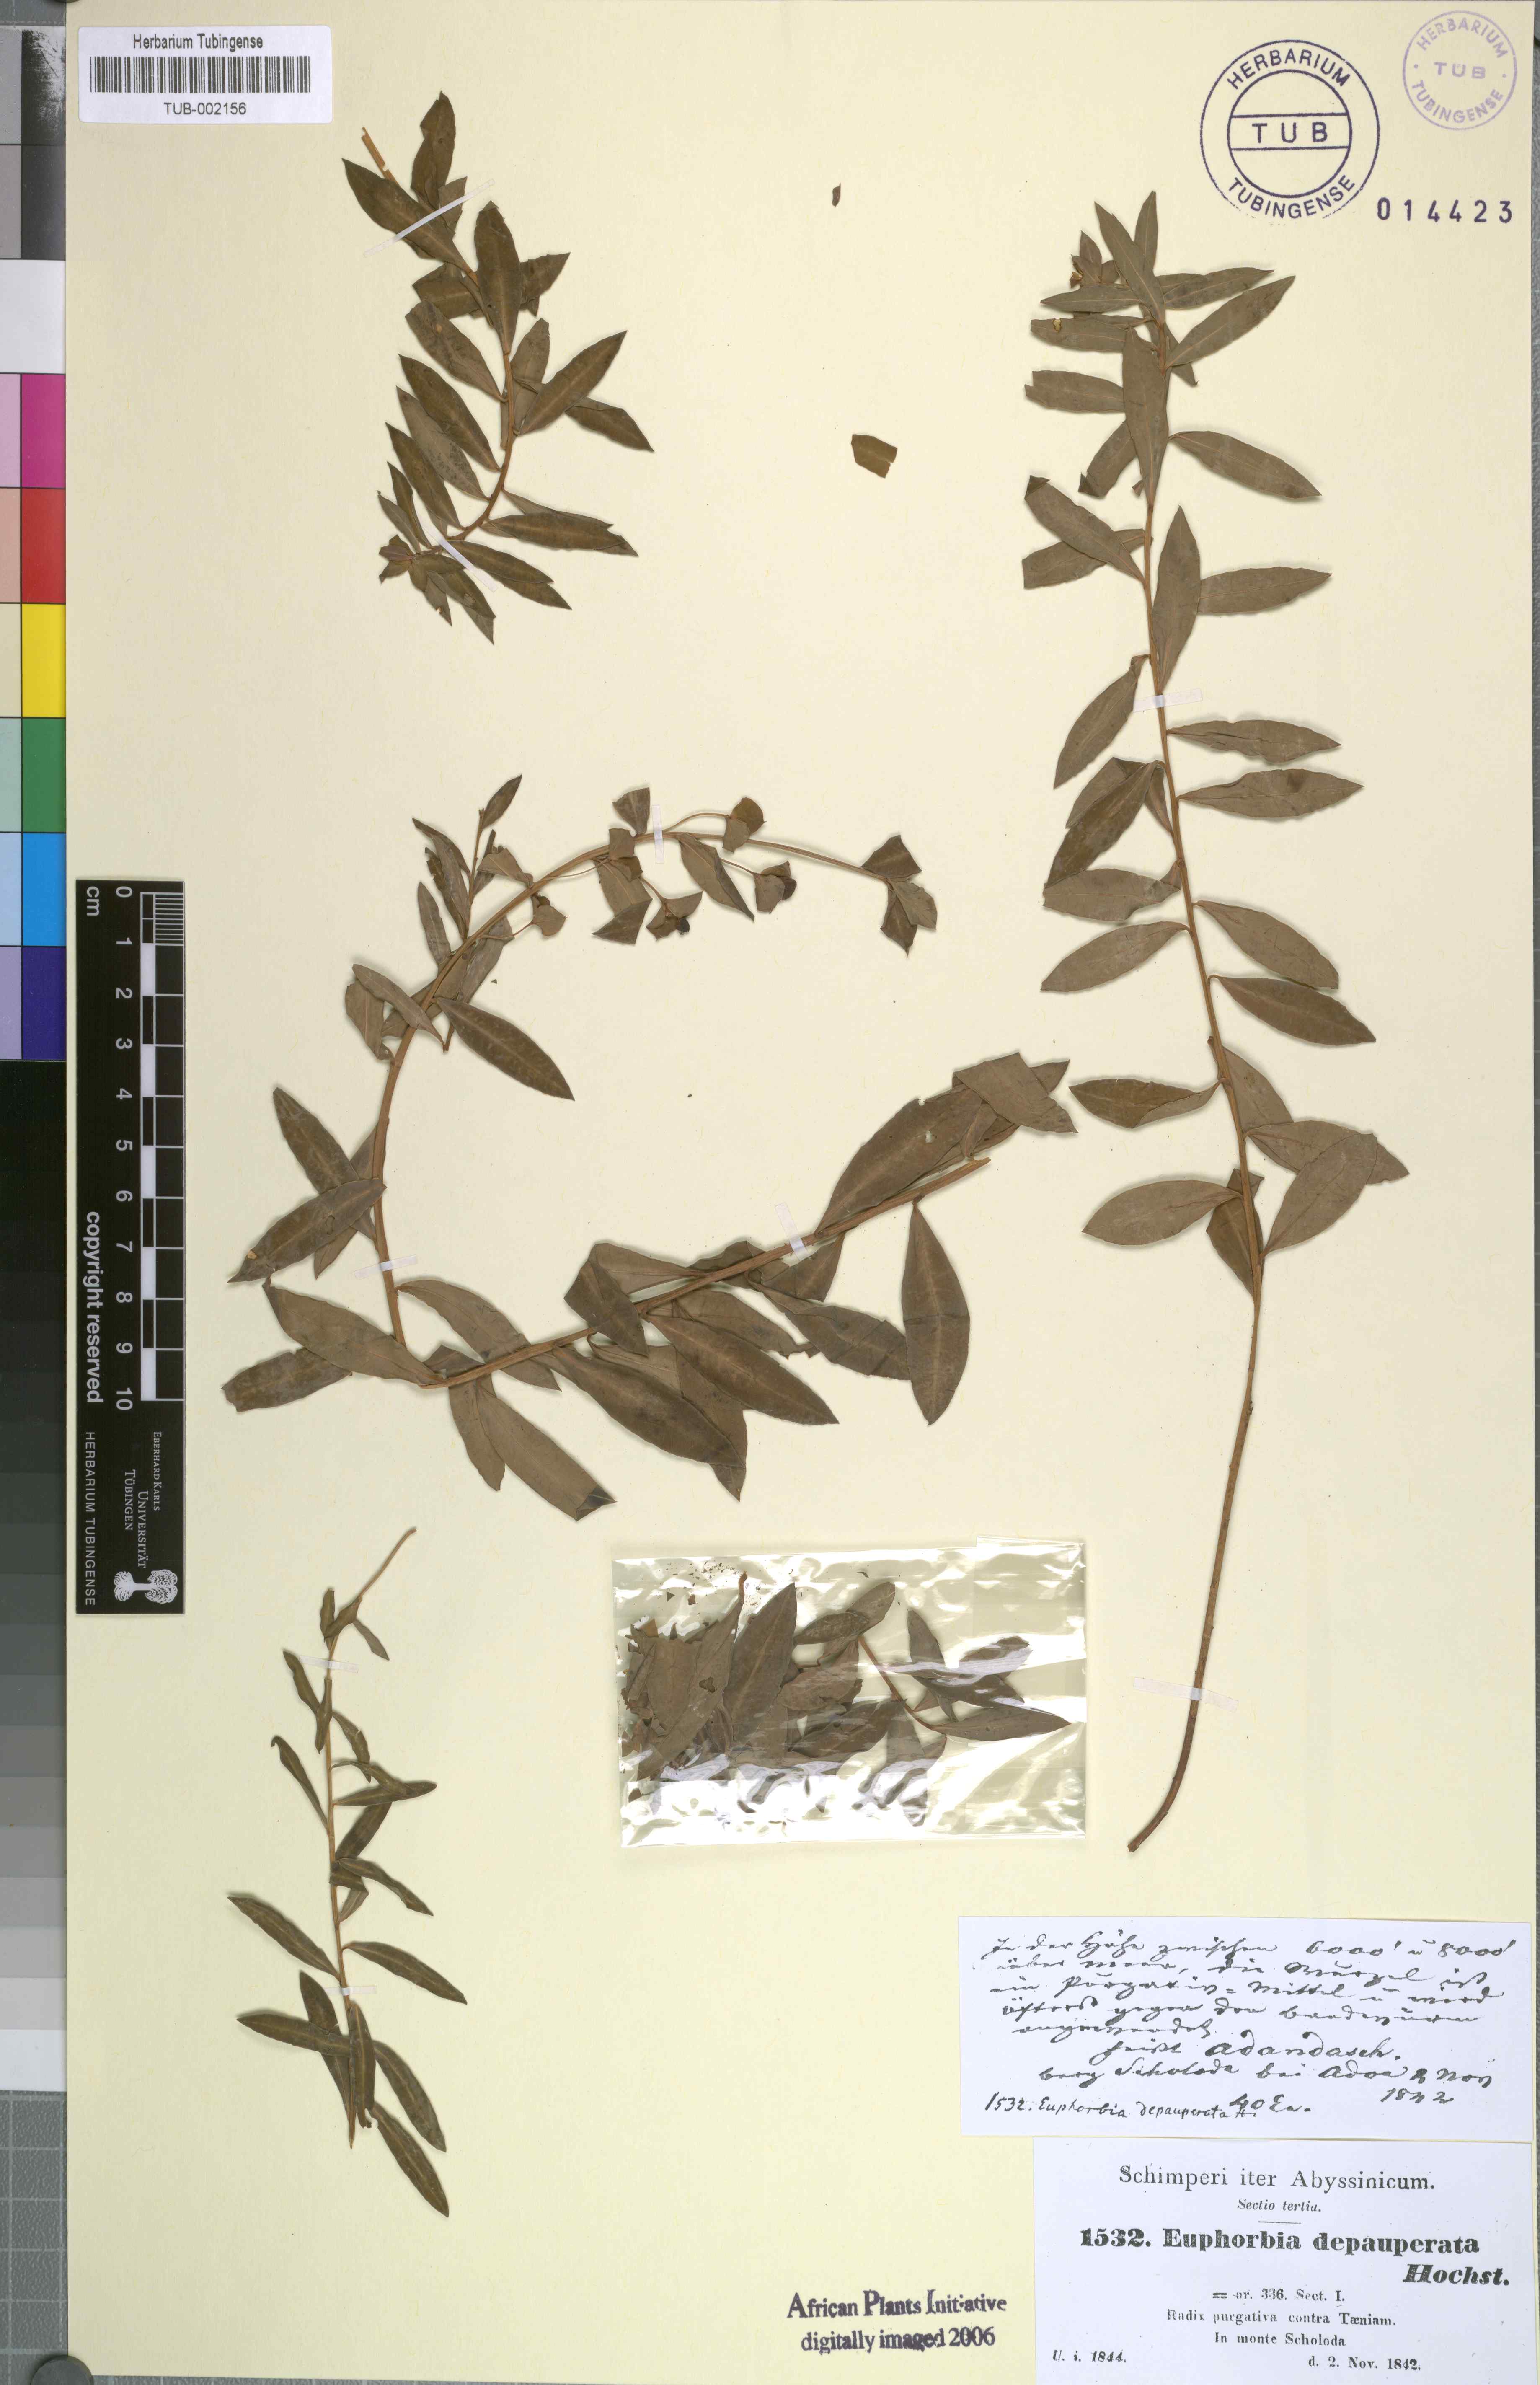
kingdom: Plantae
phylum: Tracheophyta
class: Magnoliopsida
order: Malpighiales
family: Euphorbiaceae
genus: Euphorbia
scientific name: Euphorbia depauperata
